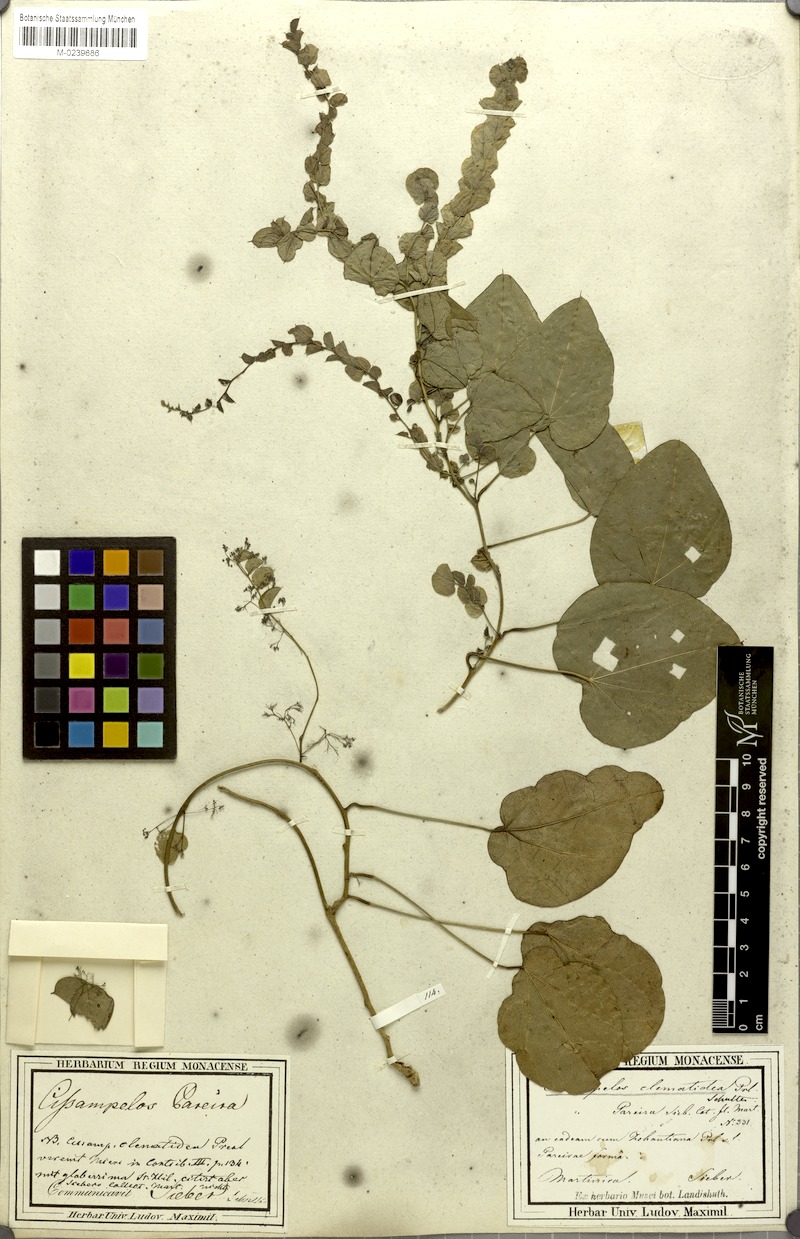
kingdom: Plantae
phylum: Tracheophyta
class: Magnoliopsida
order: Ranunculales
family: Menispermaceae
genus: Cissampelos
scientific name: Cissampelos glaberrima
